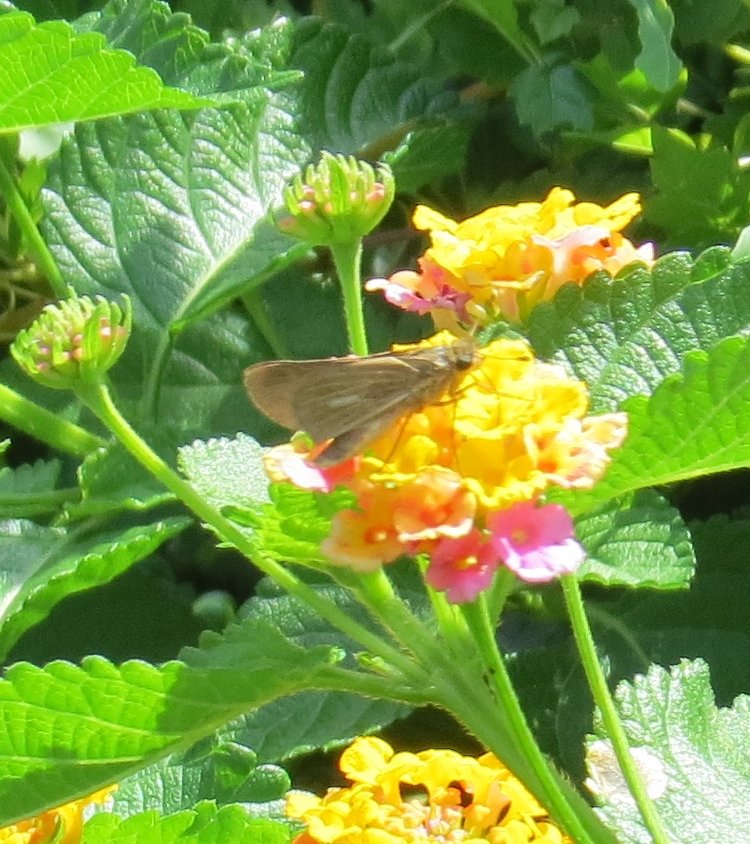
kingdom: Animalia
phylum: Arthropoda
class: Insecta
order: Lepidoptera
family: Hesperiidae
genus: Panoquina
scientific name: Panoquina panoquin
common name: Salt Marsh Skipper
